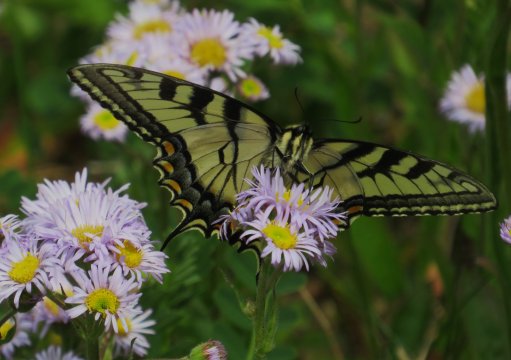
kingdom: Animalia
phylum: Arthropoda
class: Insecta
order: Lepidoptera
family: Papilionidae
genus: Pterourus
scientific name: Pterourus glaucus
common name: Eastern Tiger Swallowtail
